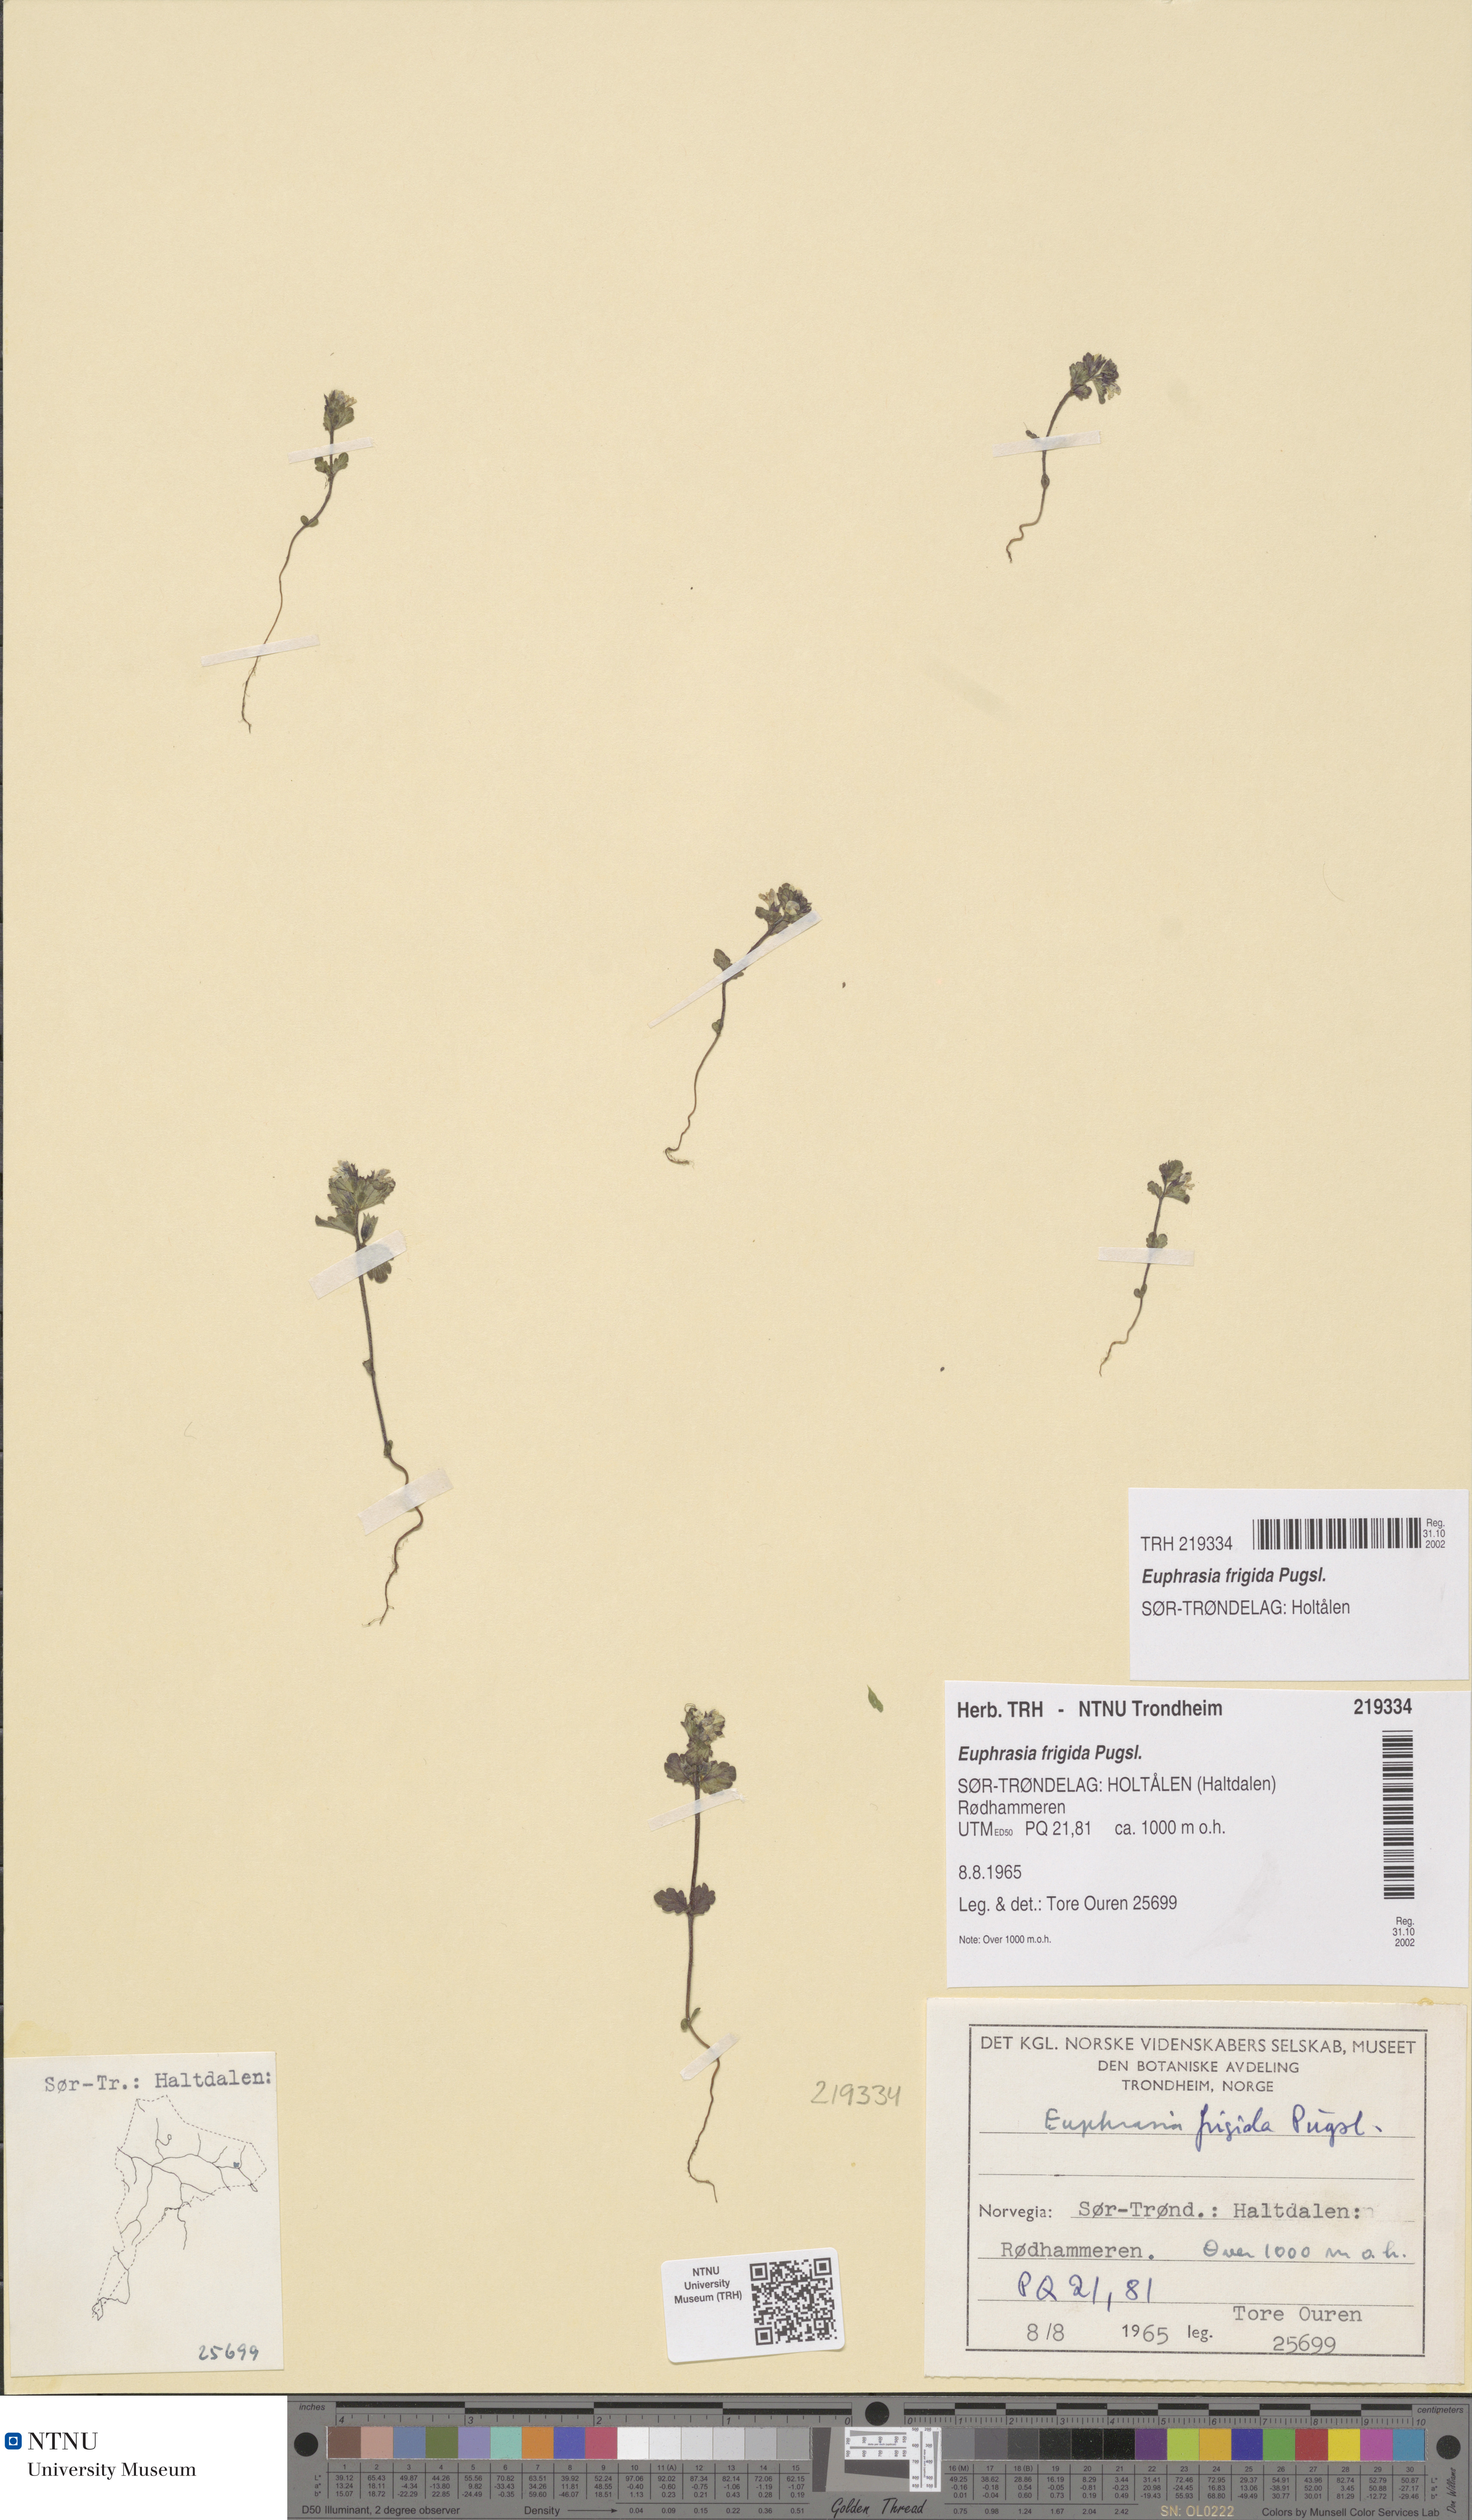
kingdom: Plantae
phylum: Tracheophyta
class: Magnoliopsida
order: Lamiales
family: Orobanchaceae
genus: Euphrasia
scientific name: Euphrasia wettsteinii
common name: Wettstein's eyebright
